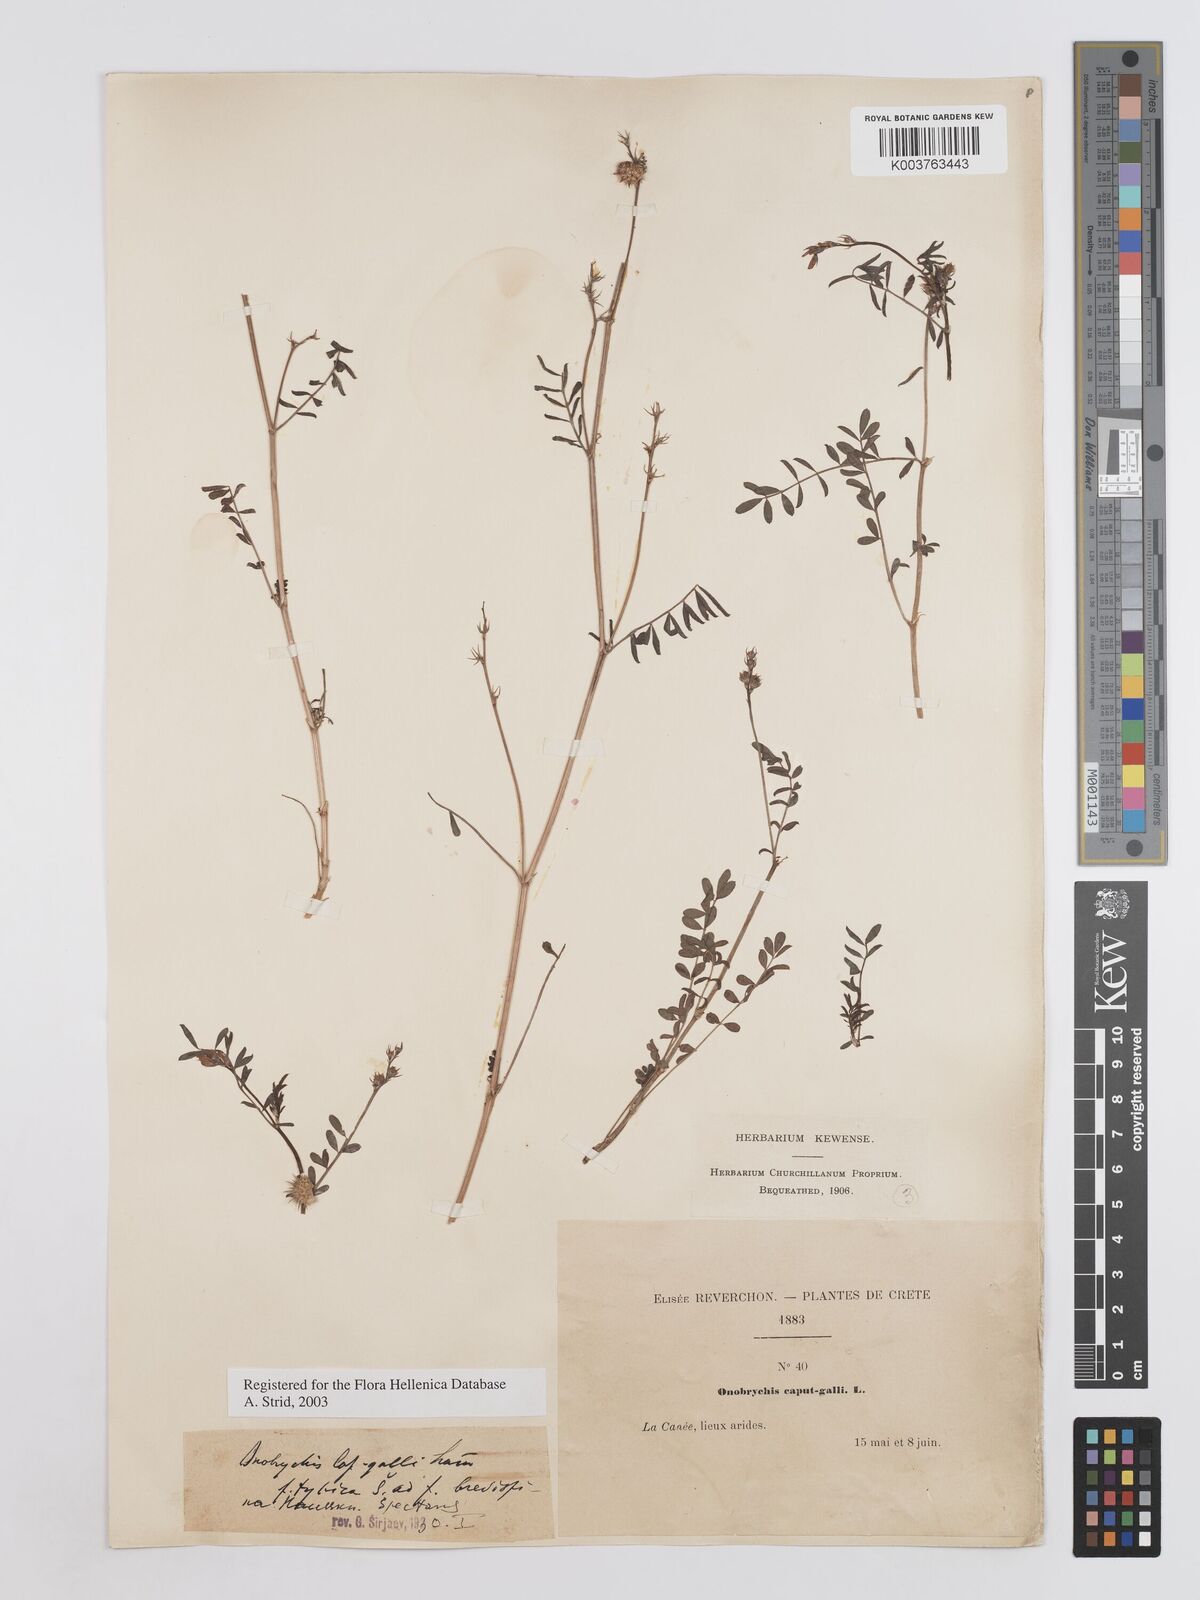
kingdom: Plantae
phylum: Tracheophyta
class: Magnoliopsida
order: Fabales
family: Fabaceae
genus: Onobrychis
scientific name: Onobrychis caput-galli
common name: Cockscomb sainfoin
